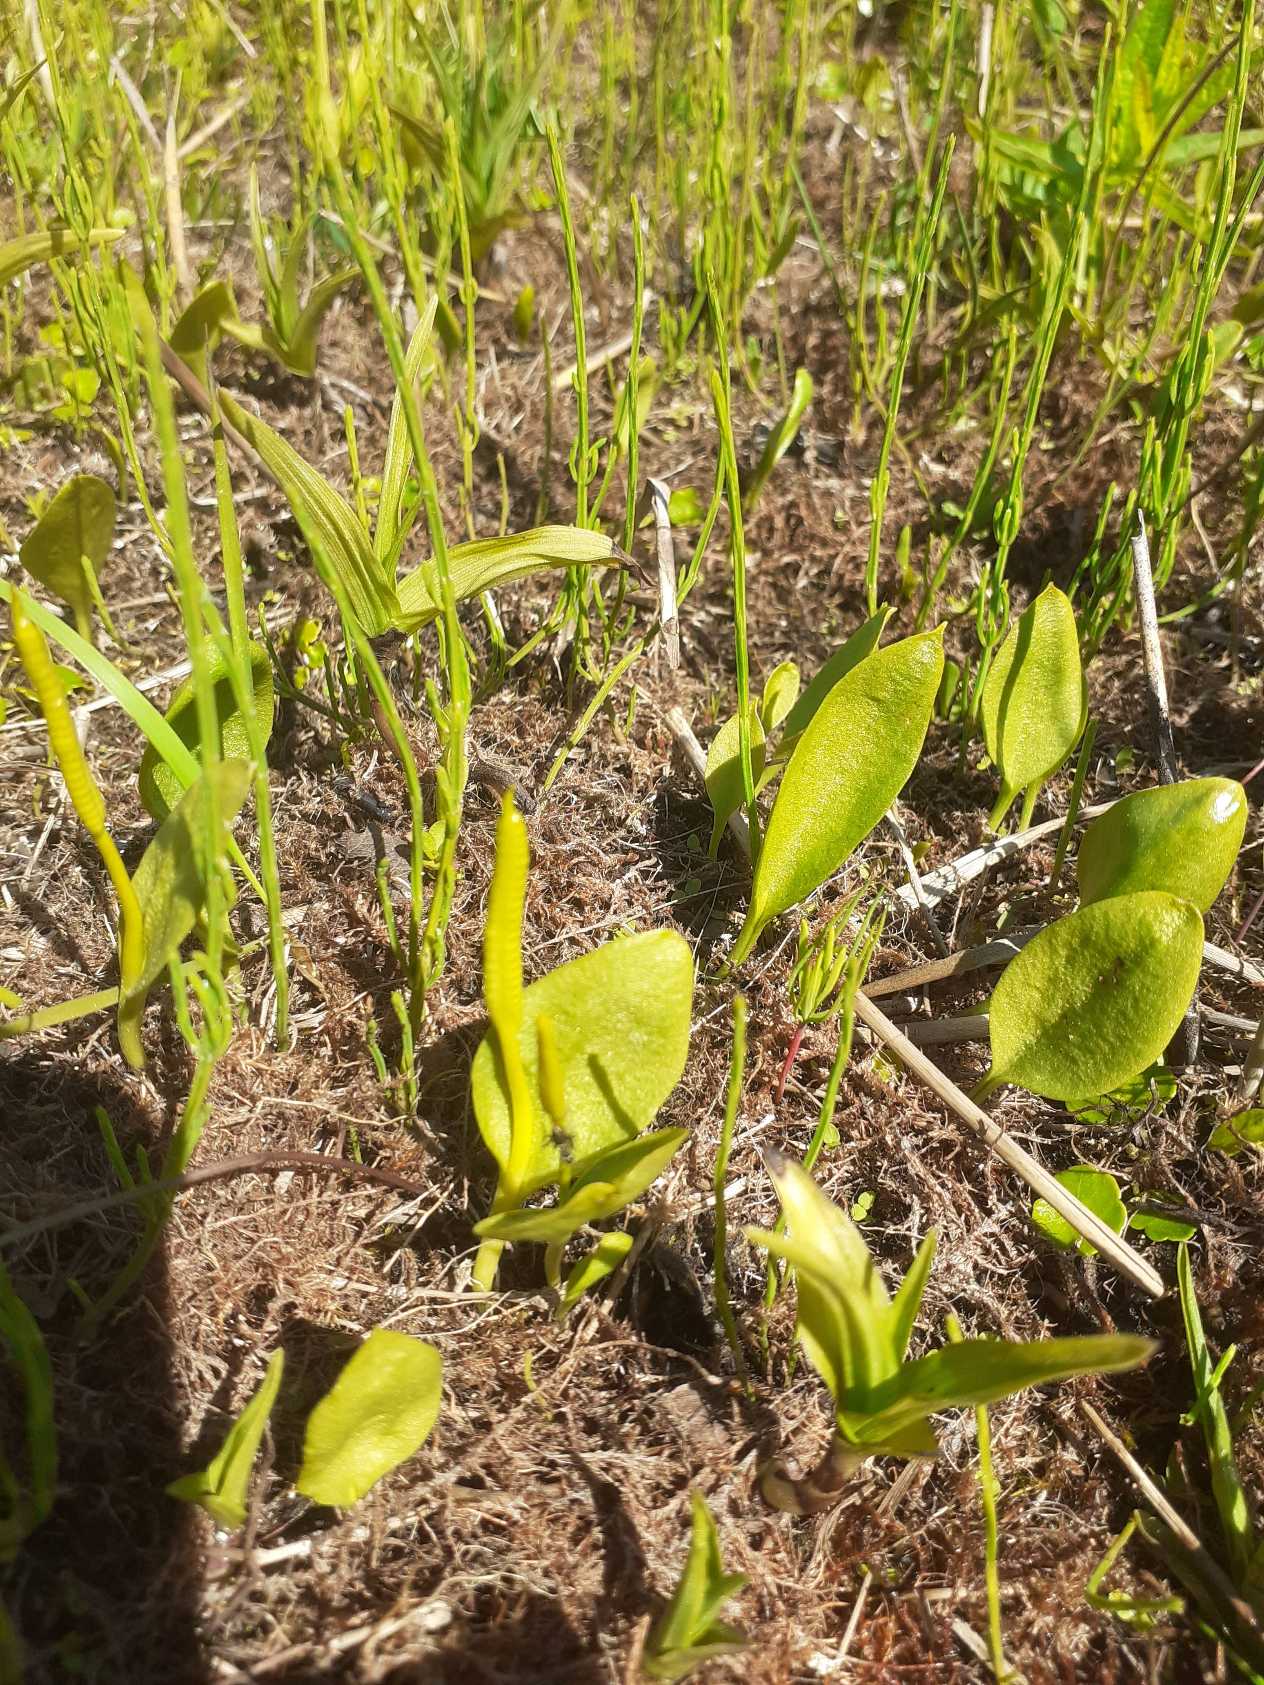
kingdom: Plantae
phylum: Tracheophyta
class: Polypodiopsida
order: Ophioglossales
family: Ophioglossaceae
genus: Ophioglossum
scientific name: Ophioglossum vulgatum
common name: Slangetunge
